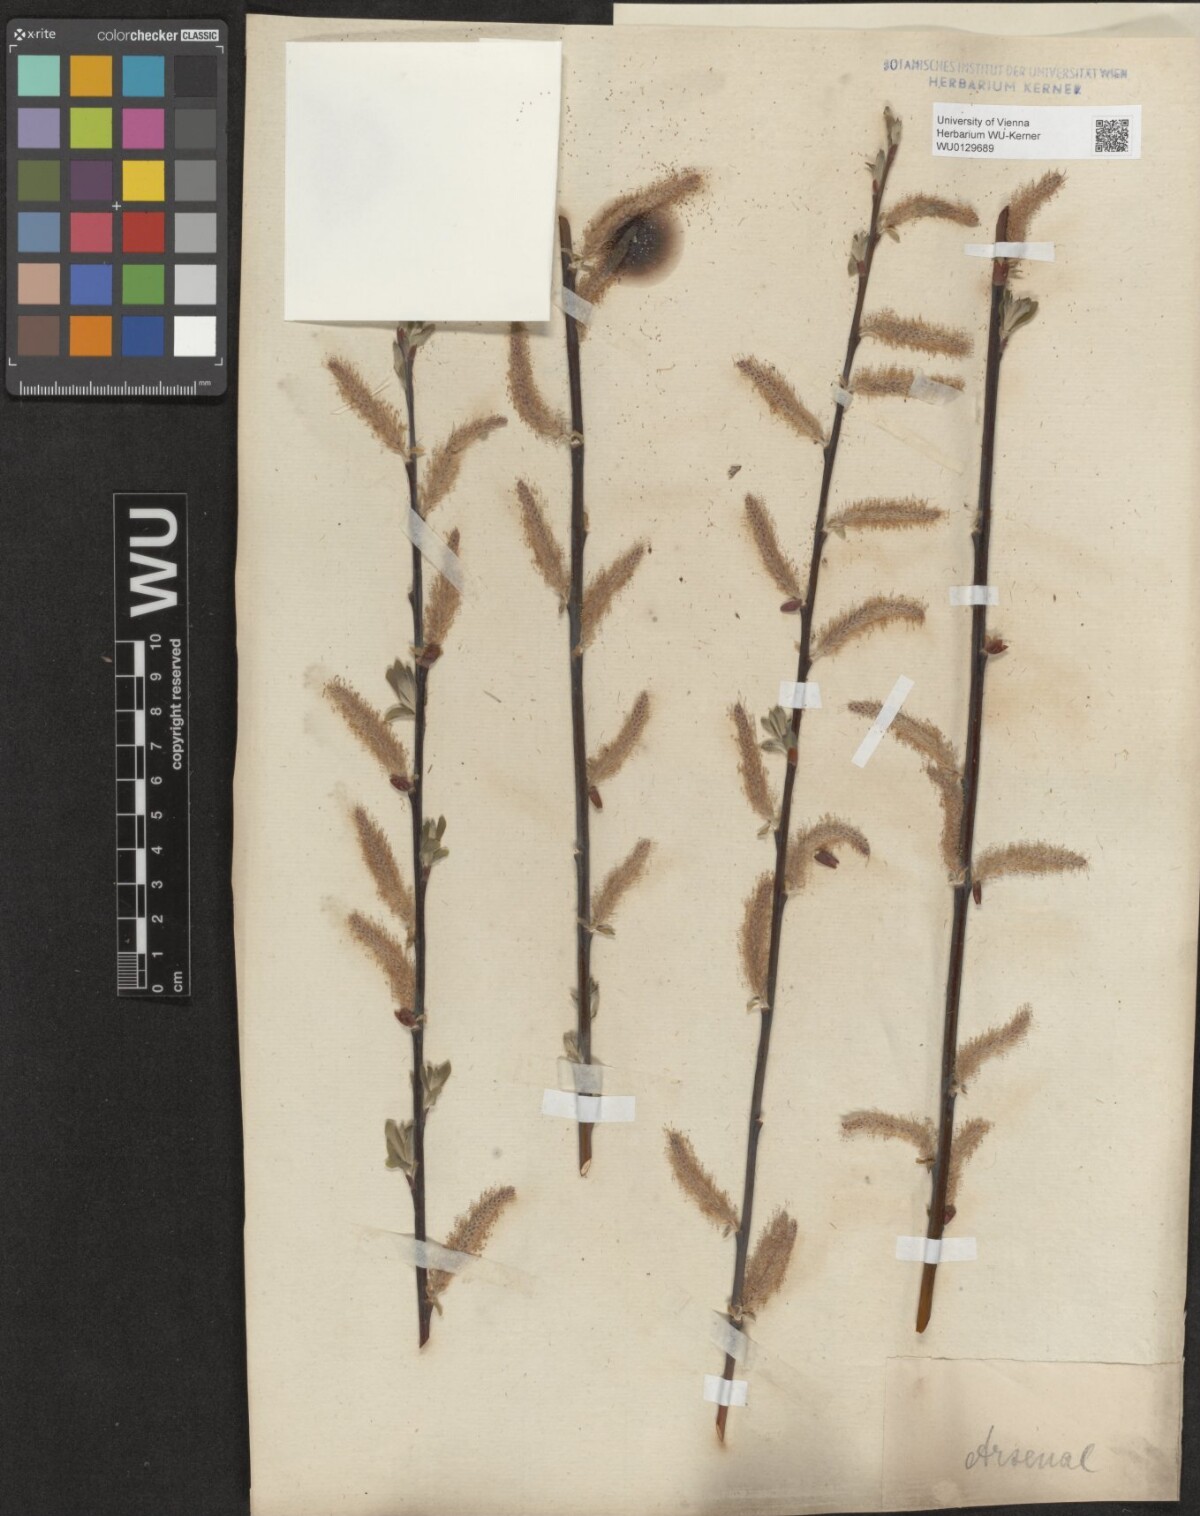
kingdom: Plantae
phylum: Tracheophyta
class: Magnoliopsida
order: Malpighiales
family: Salicaceae
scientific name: Salicaceae
